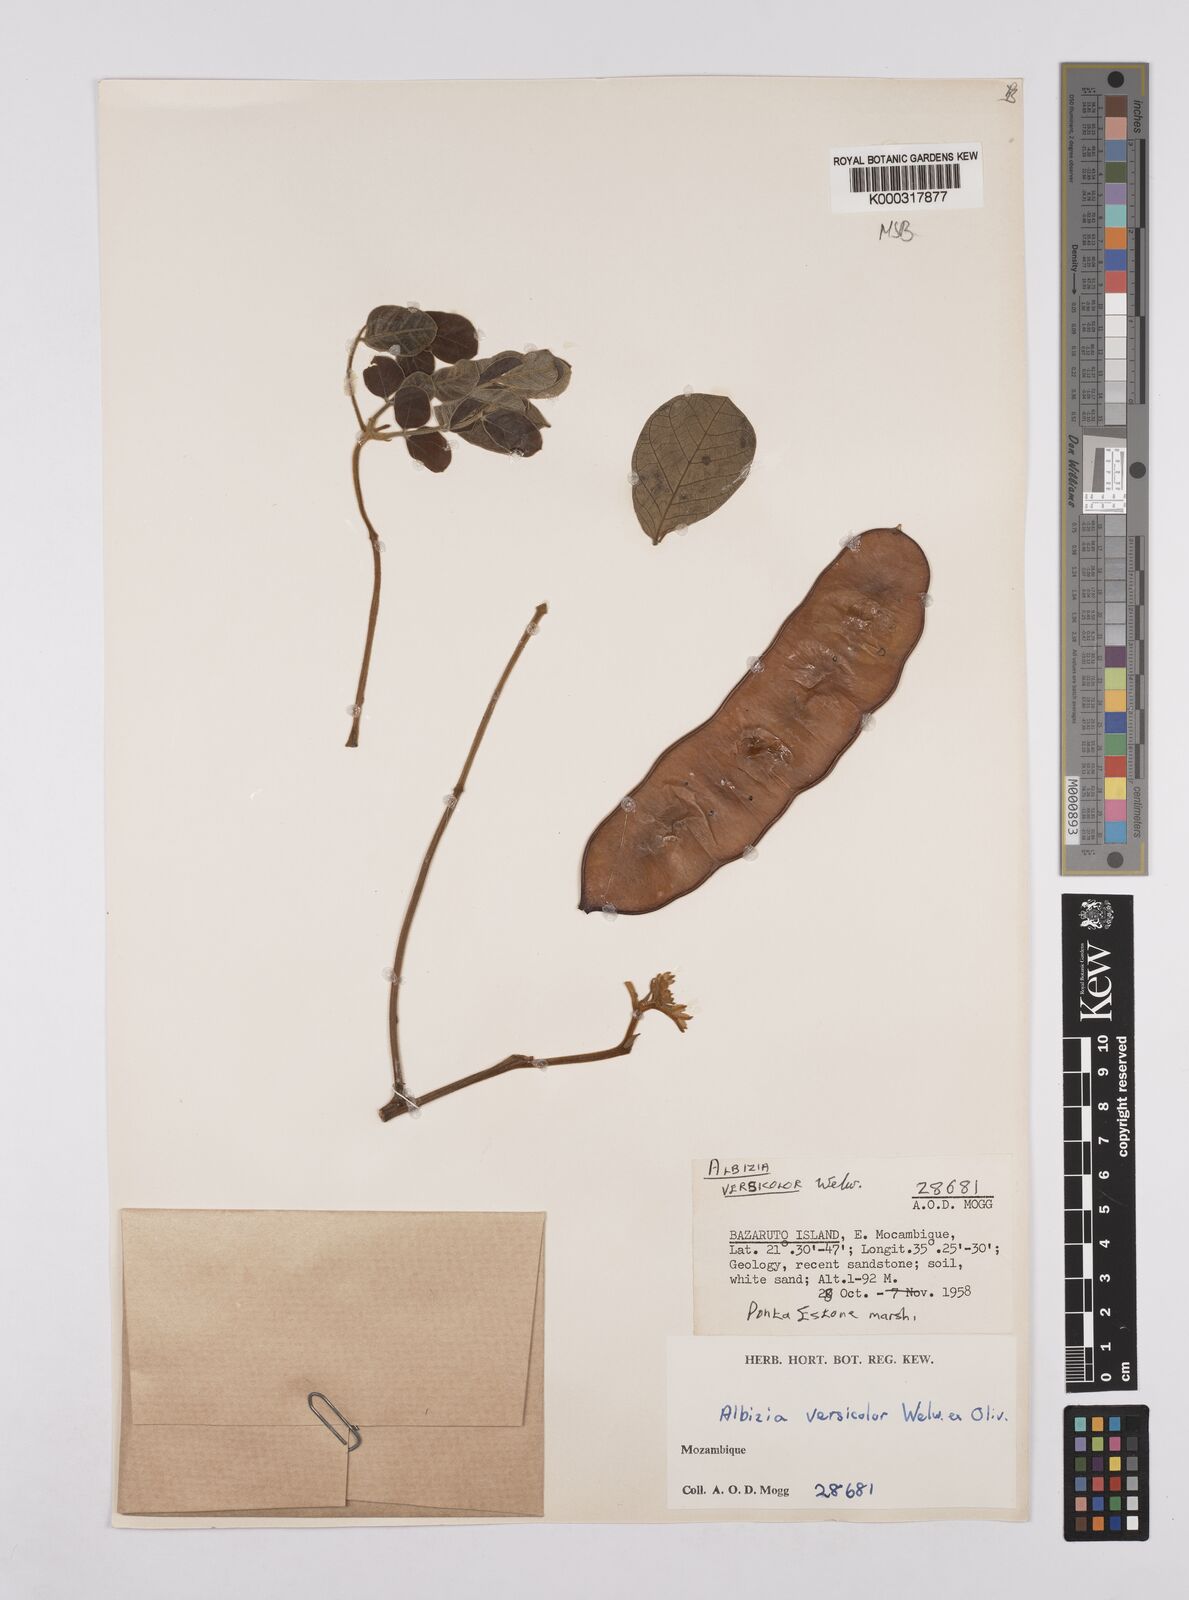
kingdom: Plantae
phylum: Tracheophyta
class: Magnoliopsida
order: Fabales
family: Fabaceae
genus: Albizia
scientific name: Albizia versicolor
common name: Poisonpod
